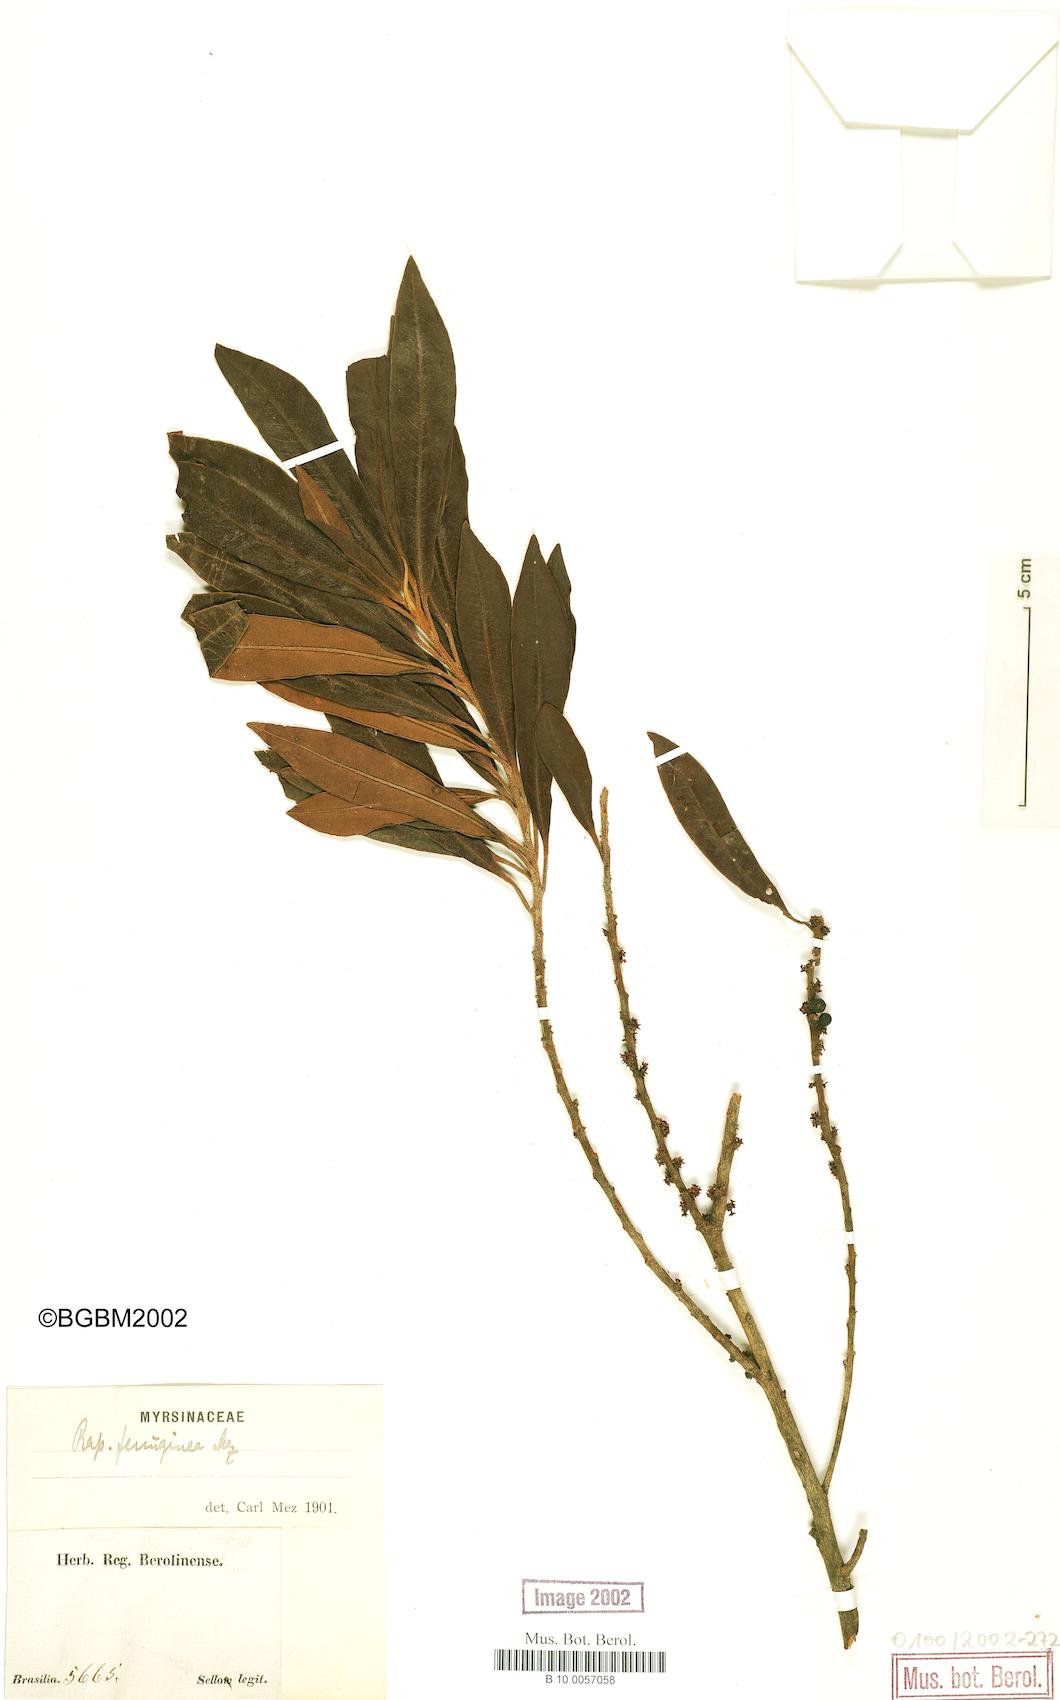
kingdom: Plantae
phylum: Tracheophyta
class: Magnoliopsida
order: Ericales
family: Primulaceae
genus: Myrsine
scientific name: Myrsine coriacea
